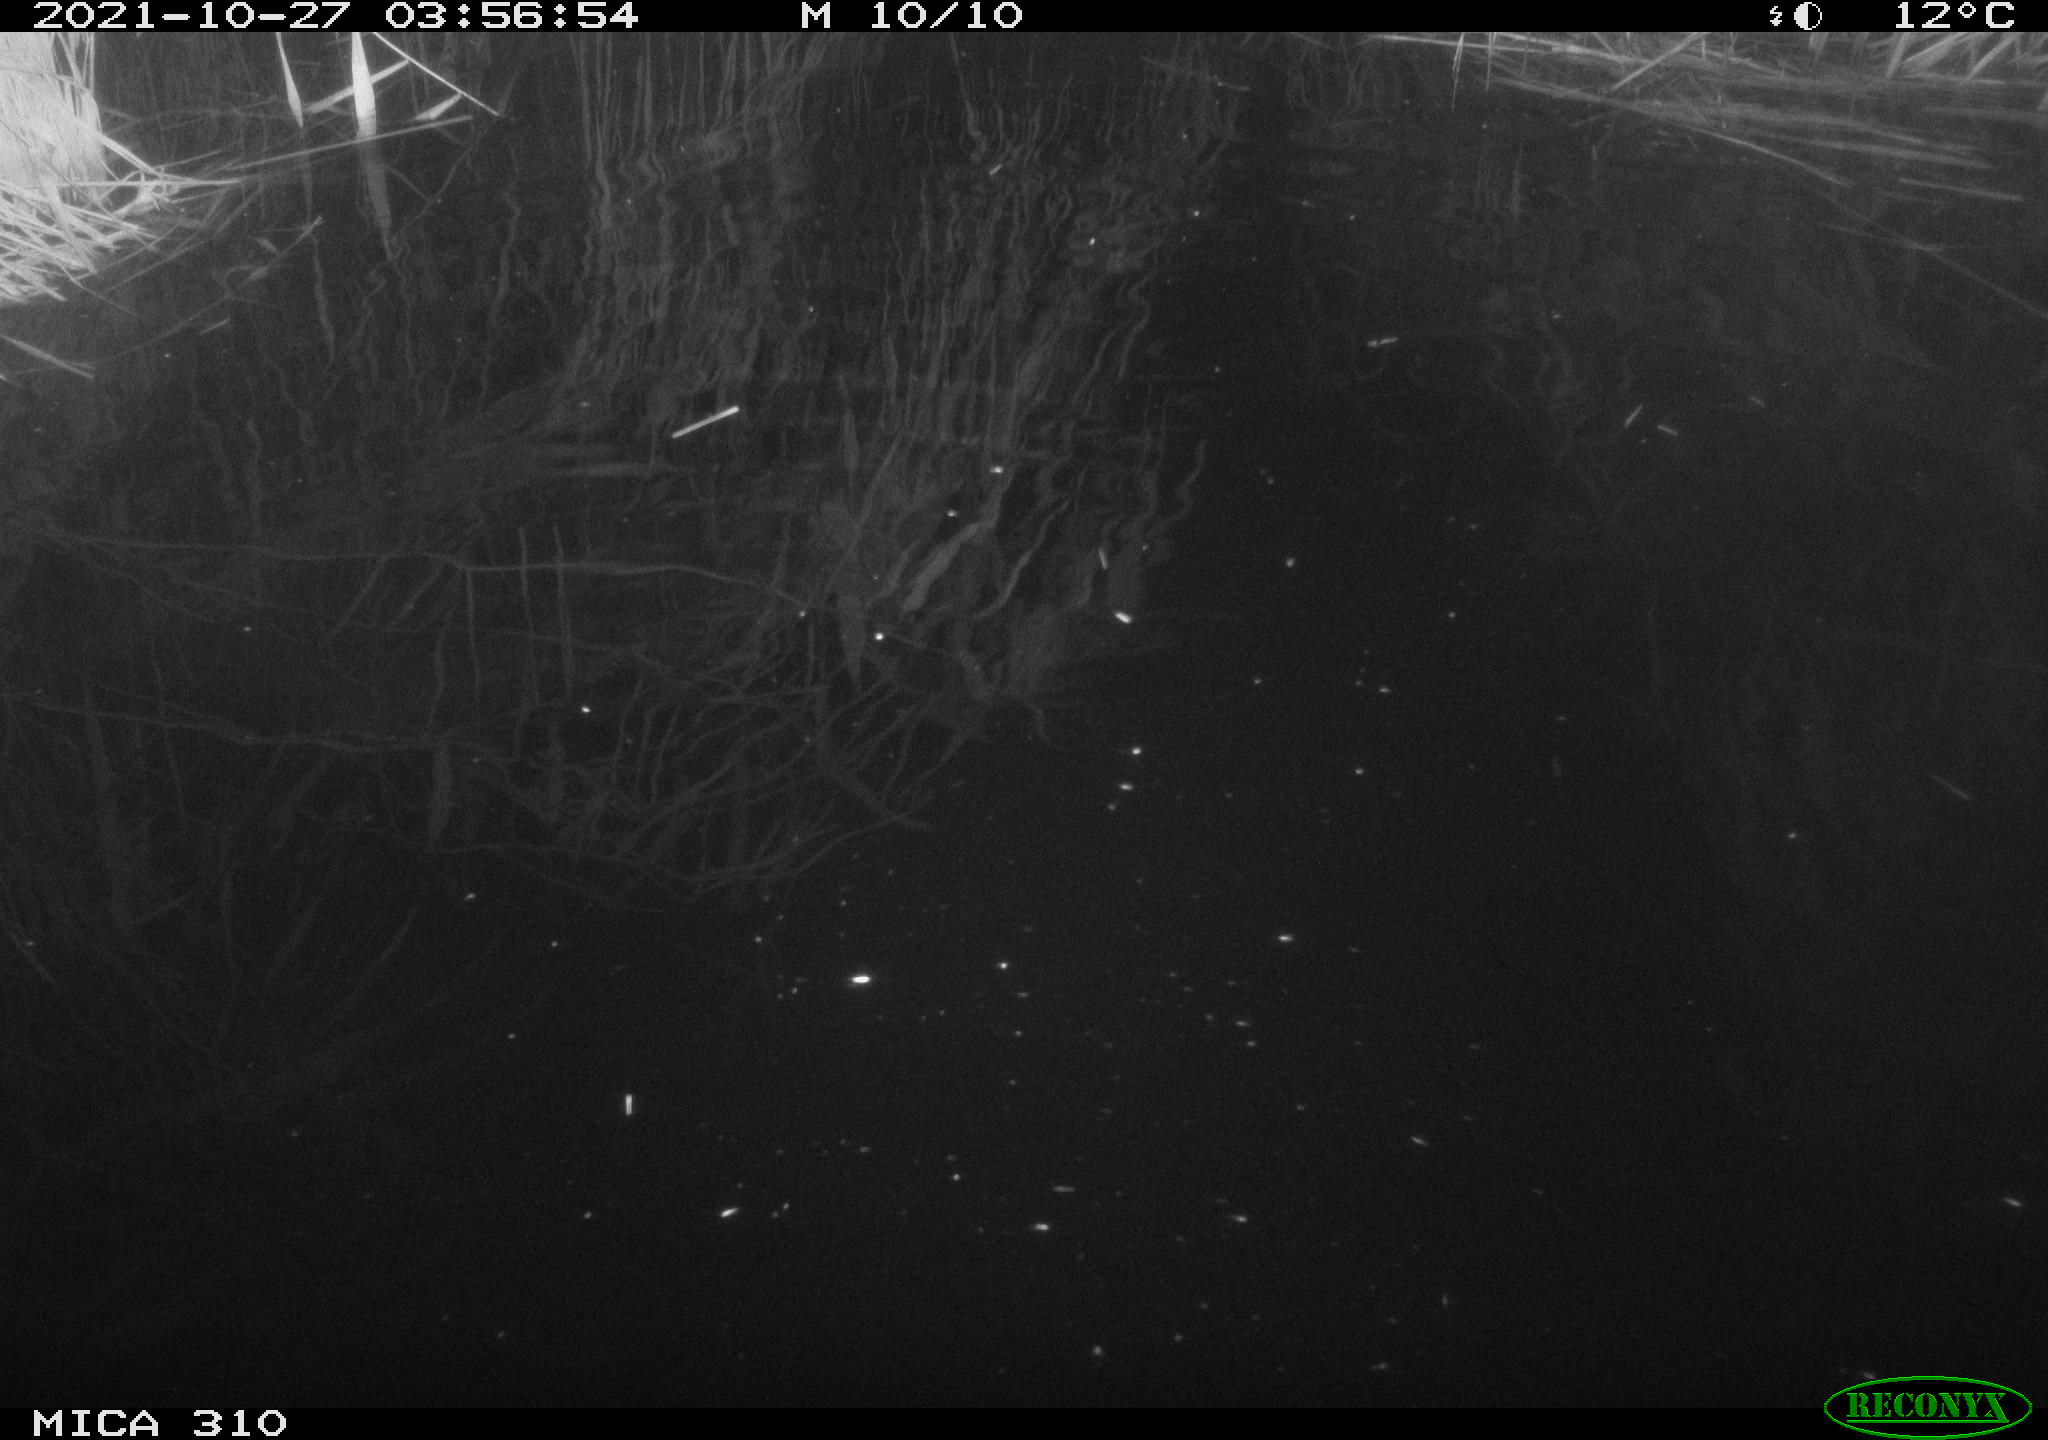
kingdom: Animalia
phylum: Chordata
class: Mammalia
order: Rodentia
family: Muridae
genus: Rattus
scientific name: Rattus norvegicus
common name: Brown rat
